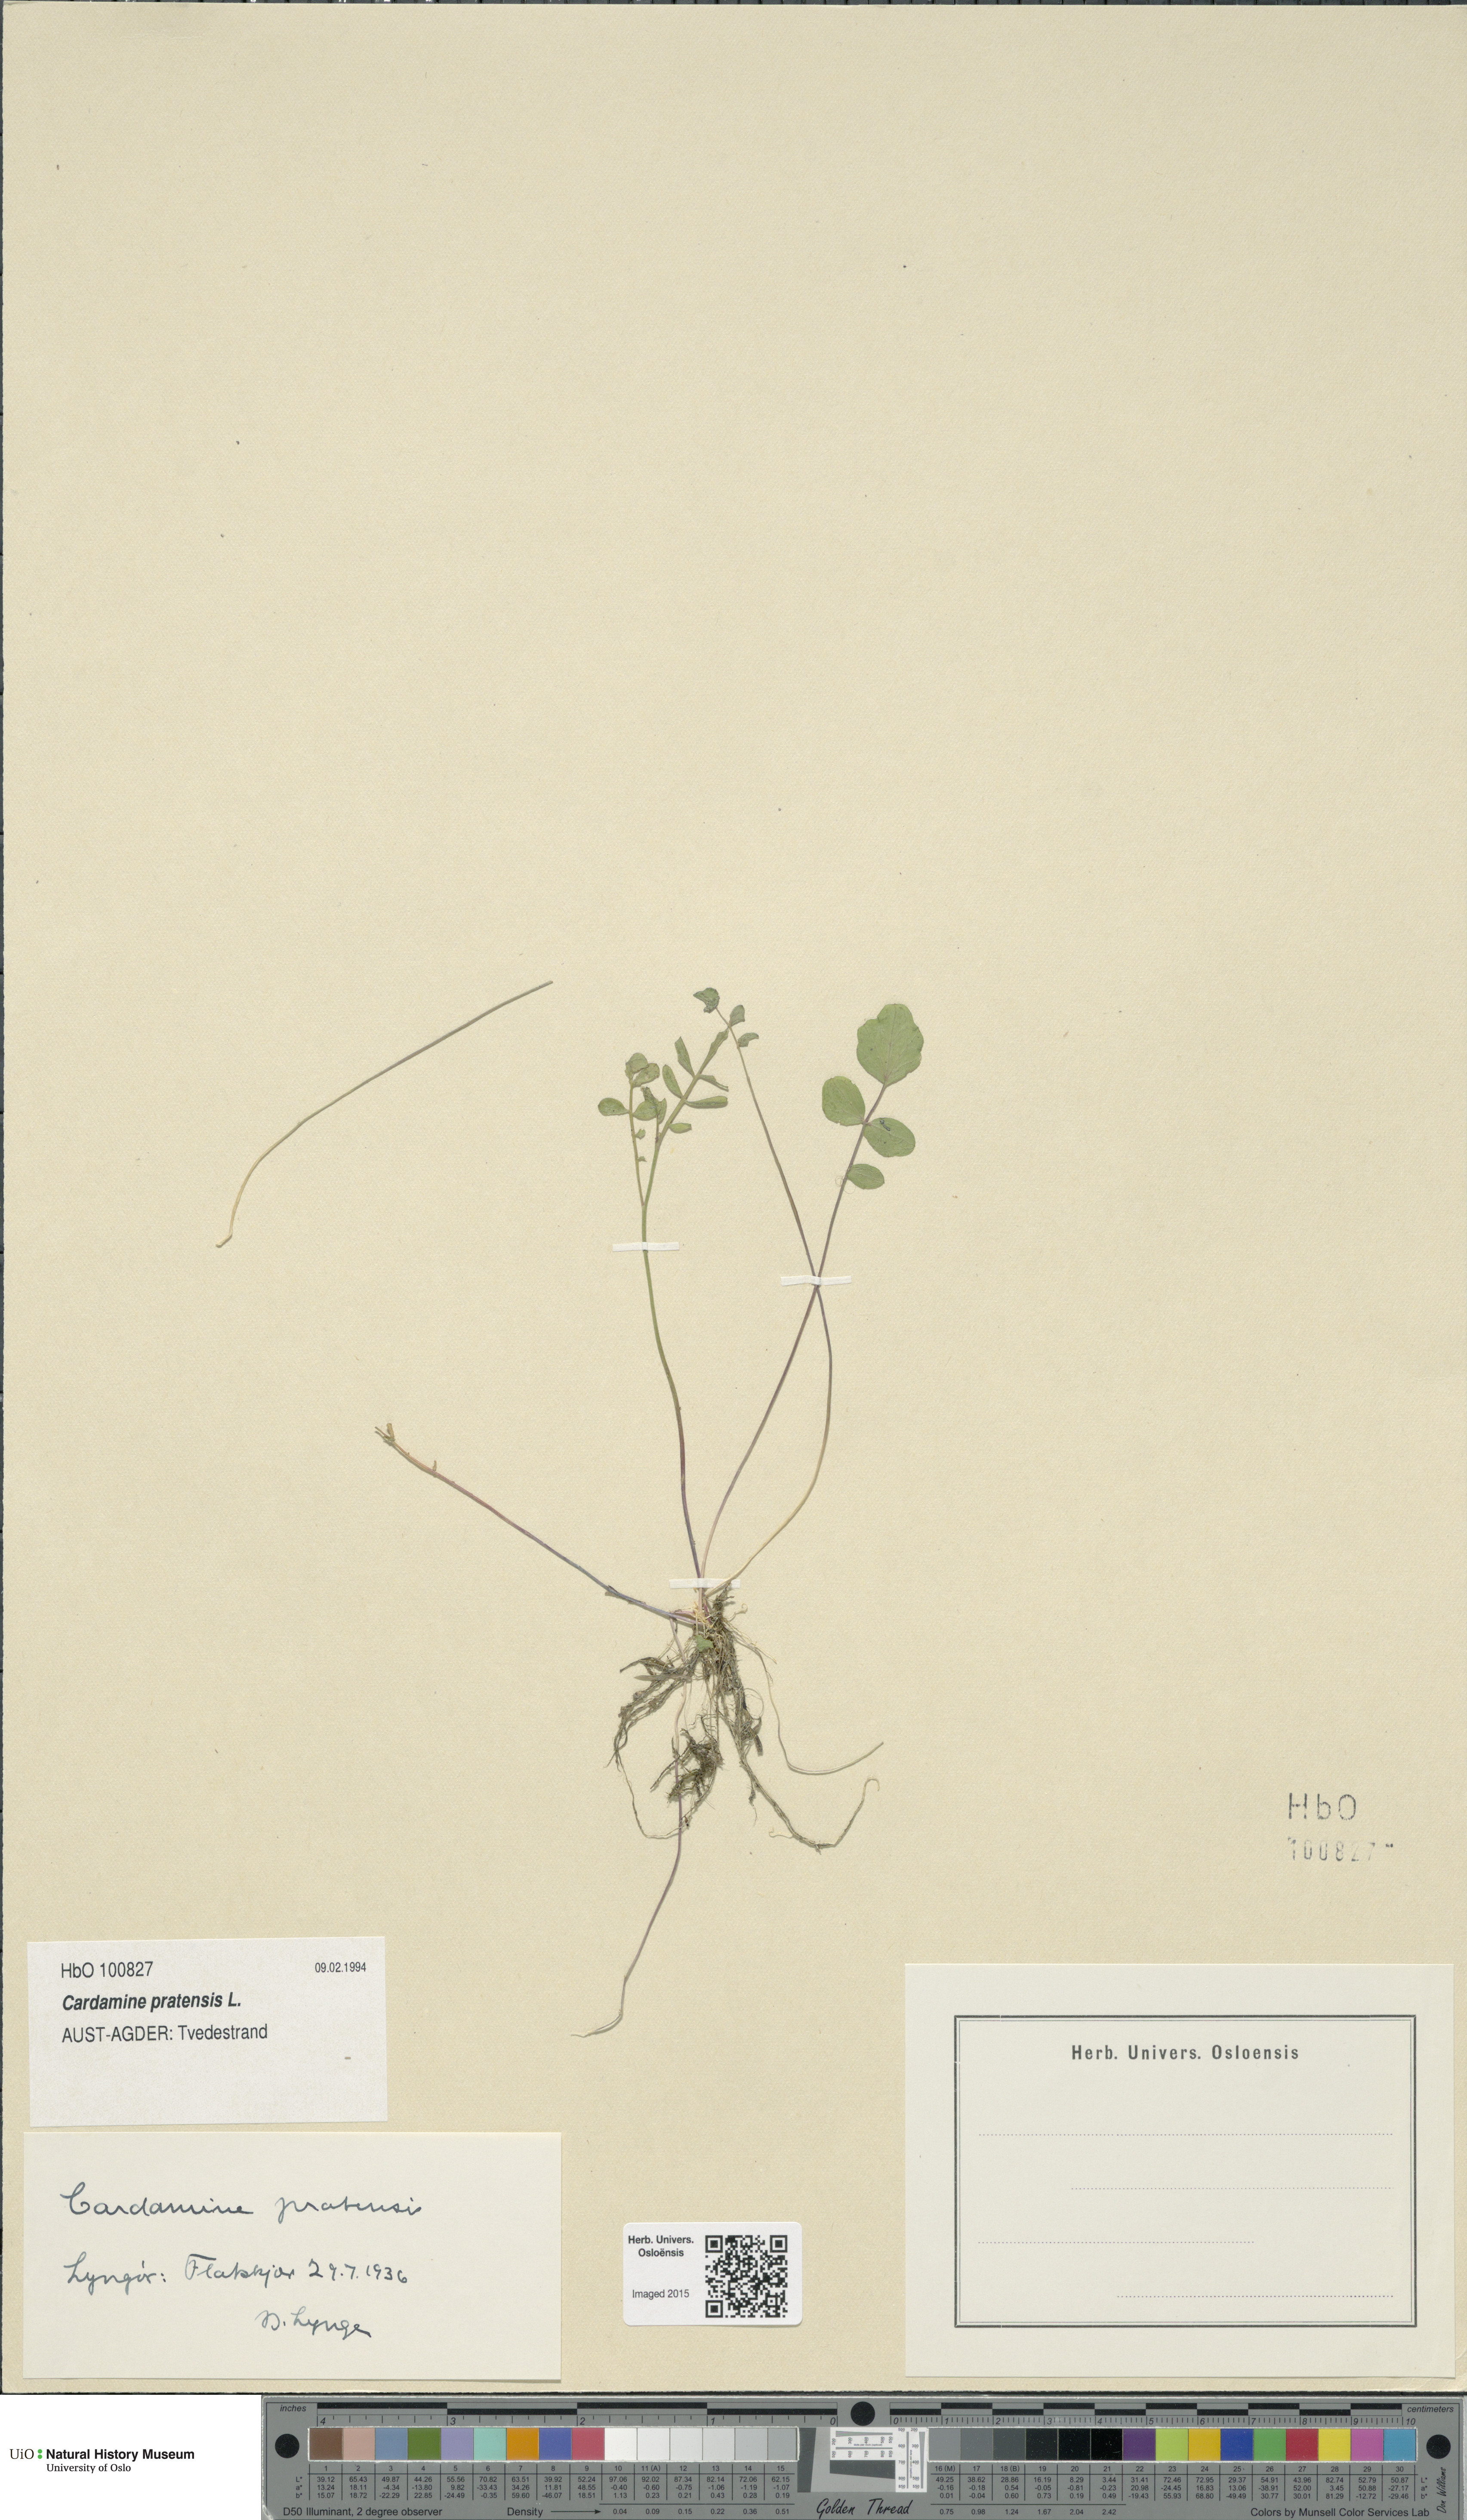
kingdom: Plantae
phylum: Tracheophyta
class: Magnoliopsida
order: Brassicales
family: Brassicaceae
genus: Cardamine
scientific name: Cardamine pratensis
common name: Cuckoo flower
